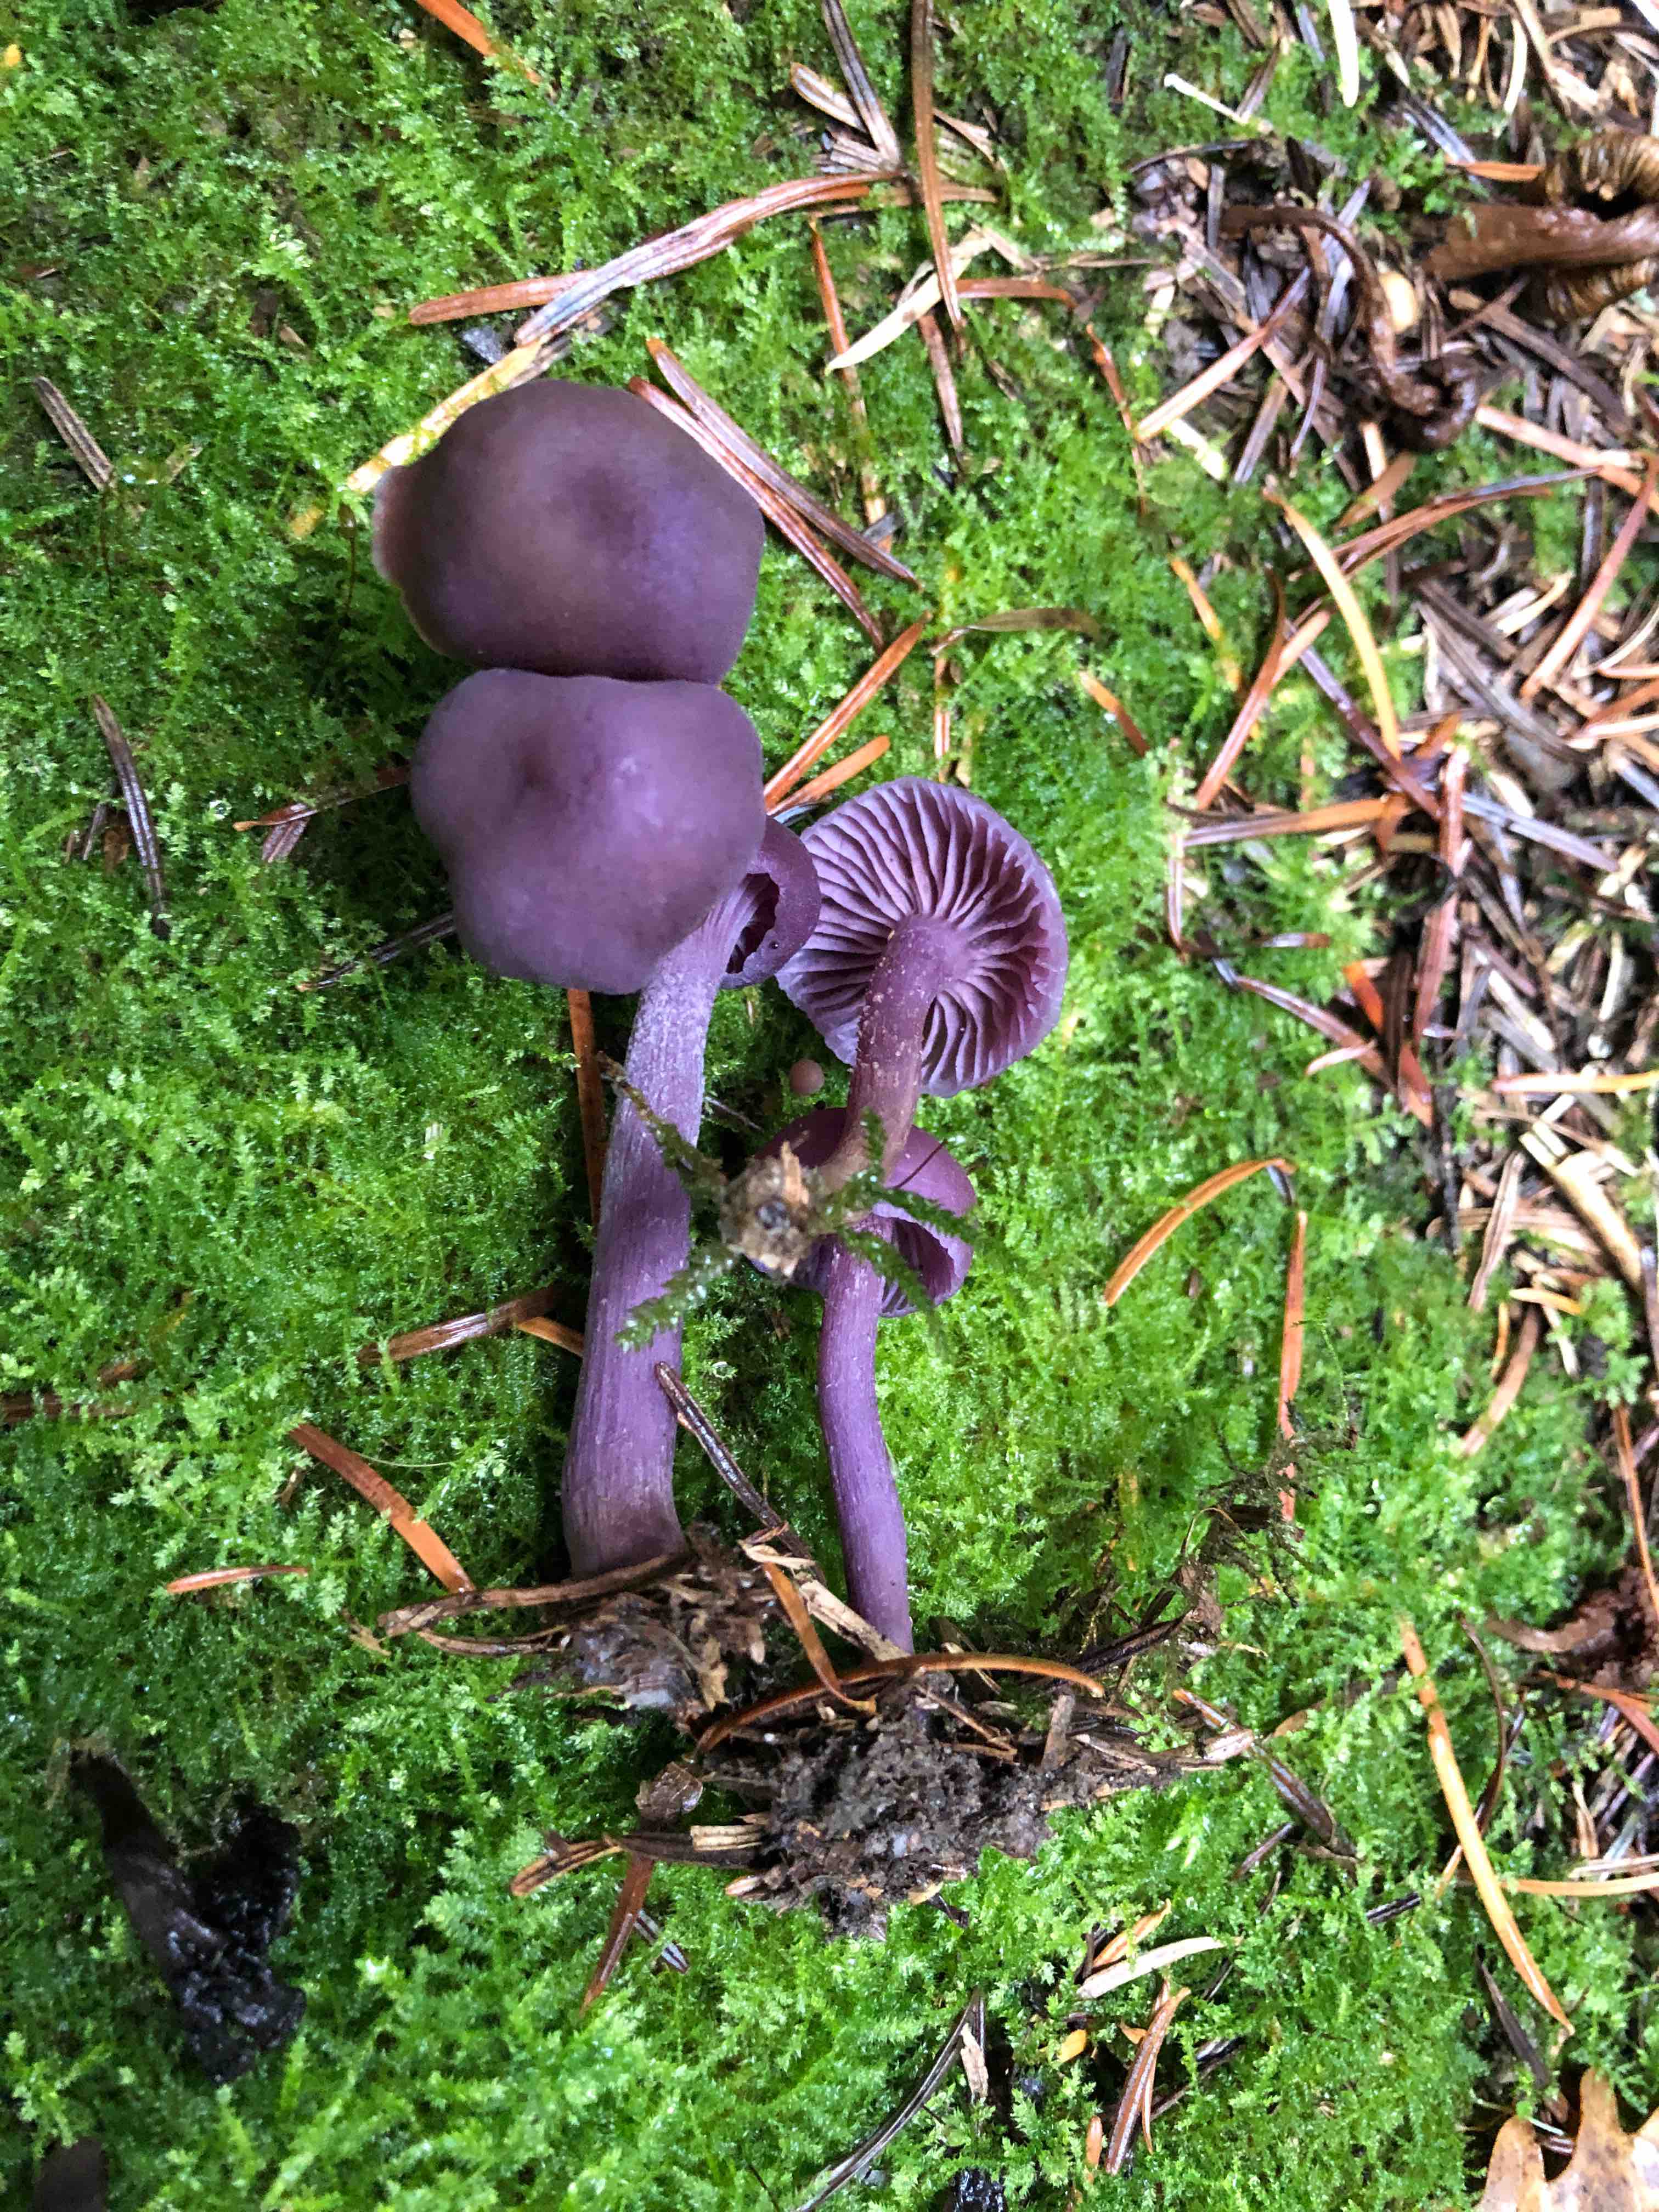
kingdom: Fungi
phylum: Basidiomycota
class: Agaricomycetes
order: Agaricales
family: Hydnangiaceae
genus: Laccaria
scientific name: Laccaria amethystina
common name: violet ametysthat
